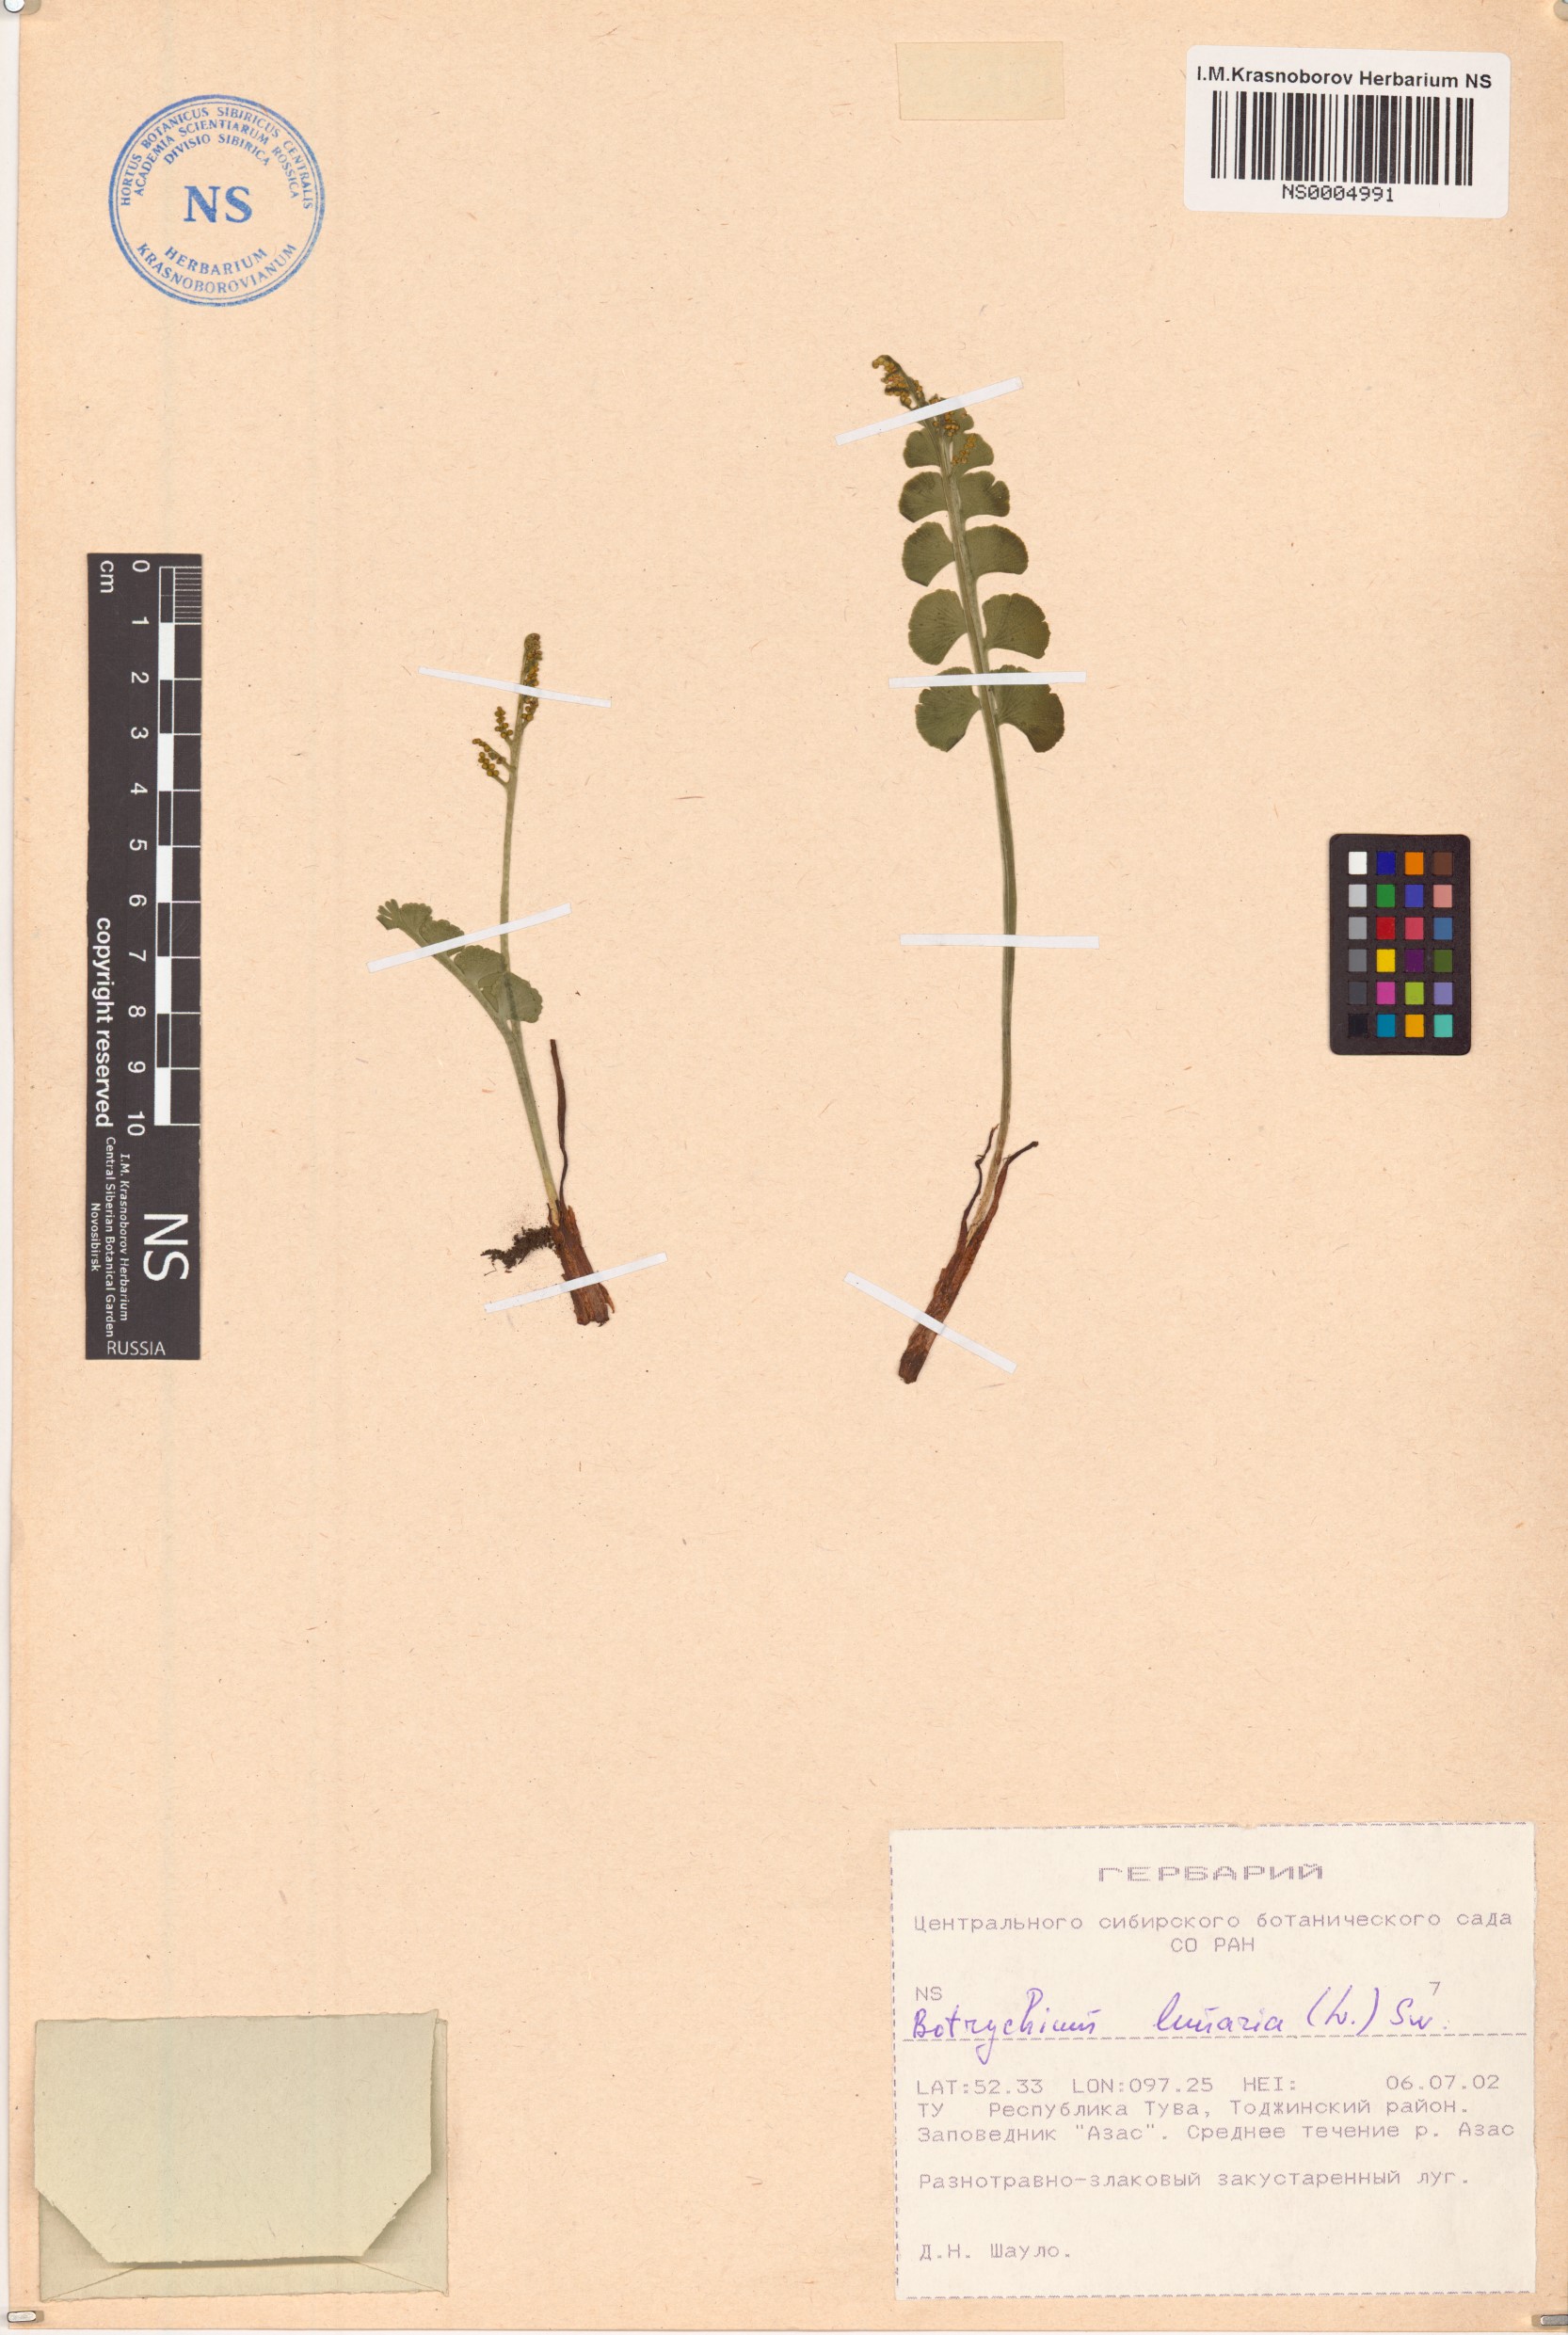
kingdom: Plantae
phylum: Tracheophyta
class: Polypodiopsida
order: Ophioglossales
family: Ophioglossaceae
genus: Botrychium
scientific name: Botrychium lunaria
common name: Moonwort
